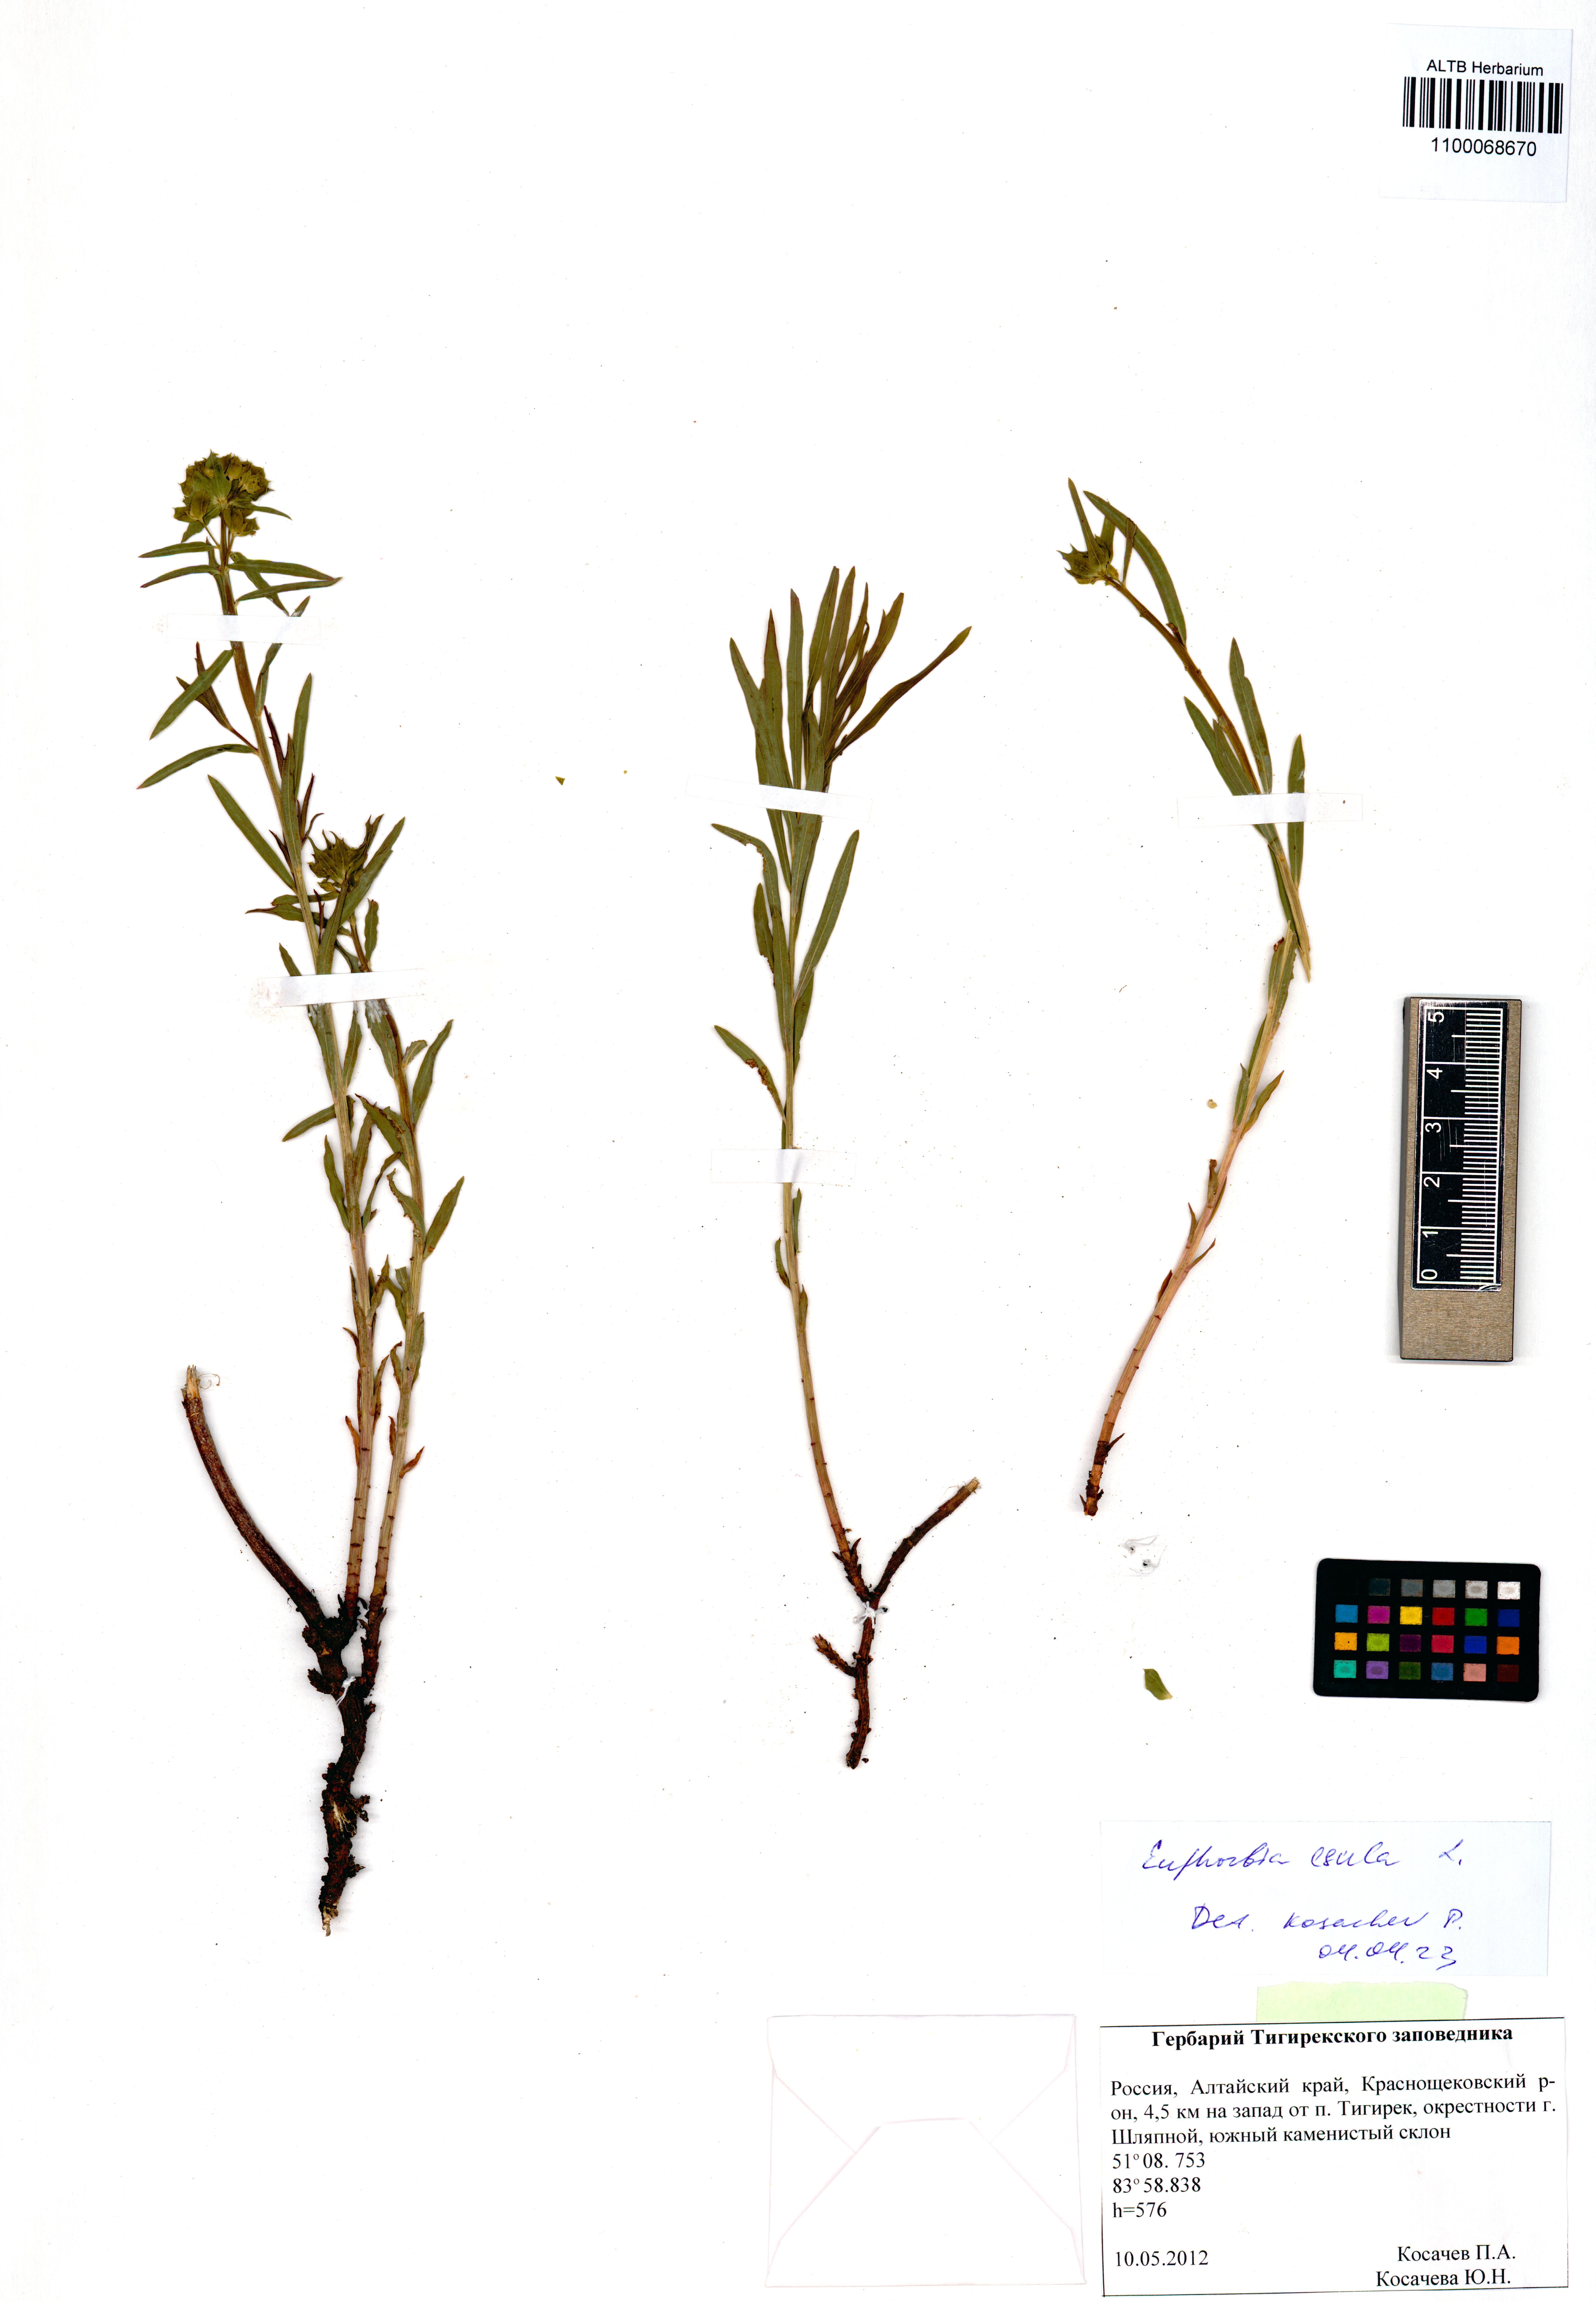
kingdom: Plantae
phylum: Tracheophyta
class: Magnoliopsida
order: Malpighiales
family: Euphorbiaceae
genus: Euphorbia
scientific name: Euphorbia esula
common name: Leafy spurge
